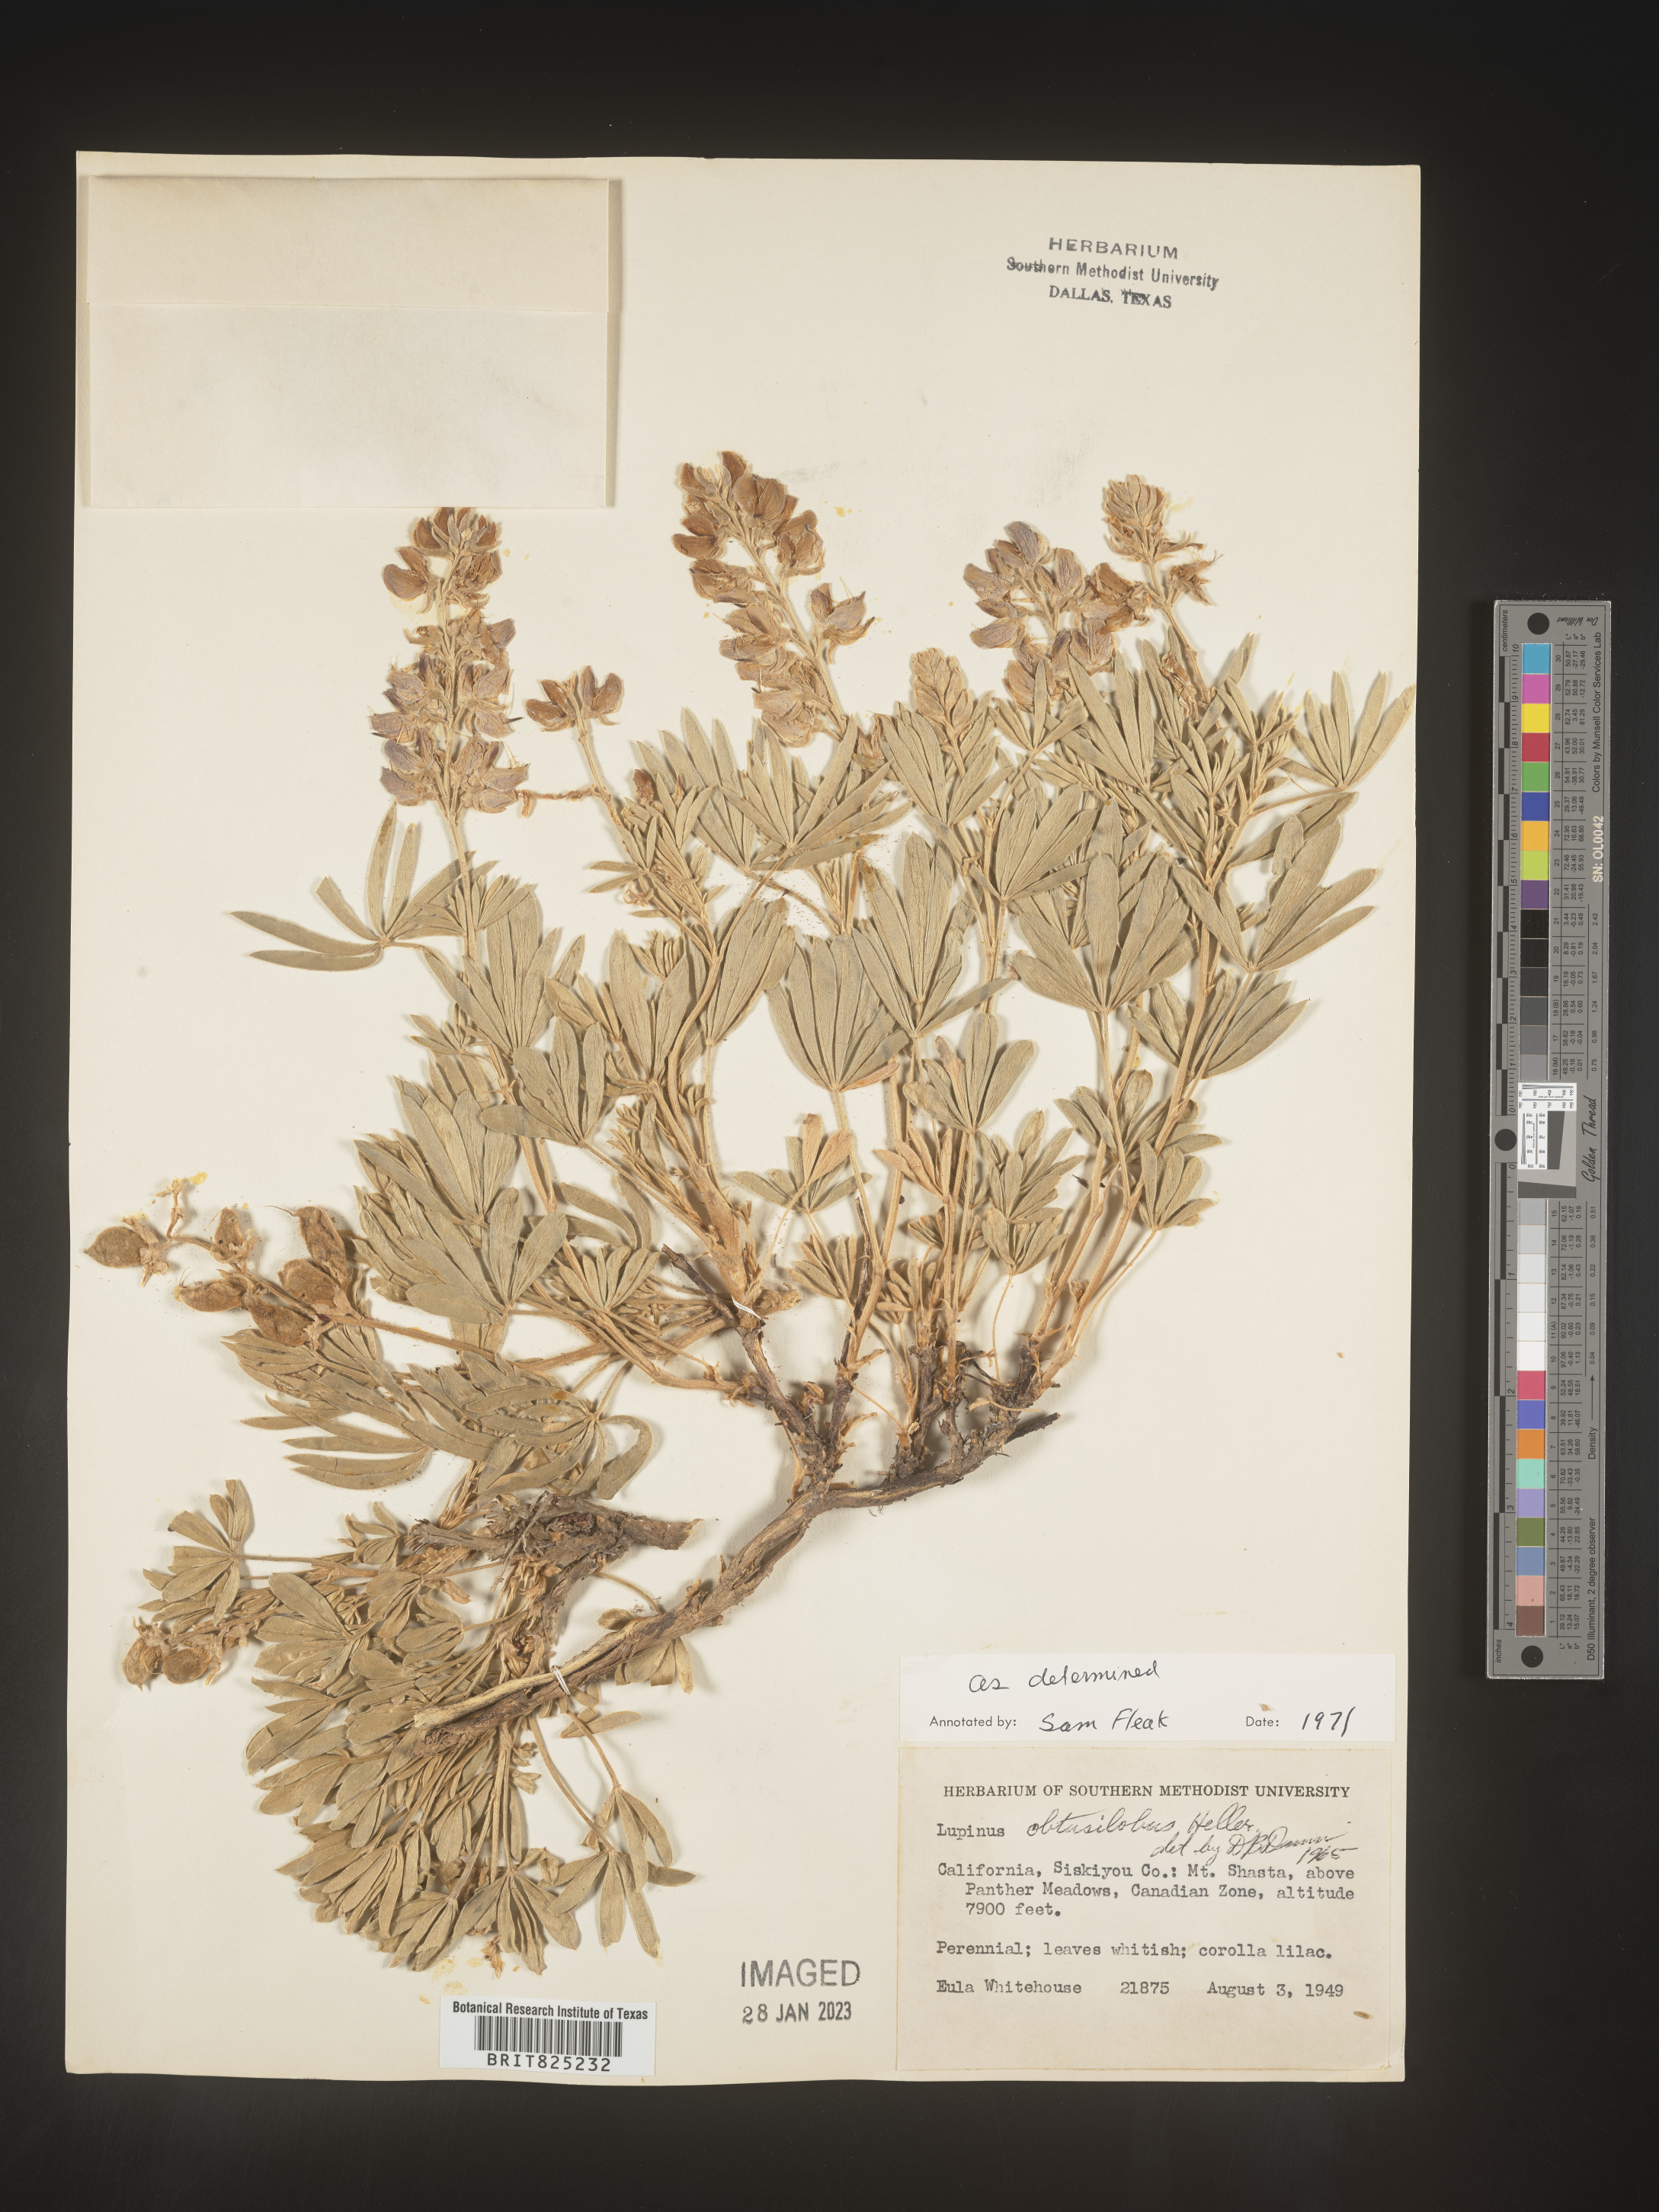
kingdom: Plantae
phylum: Tracheophyta
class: Magnoliopsida
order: Fabales
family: Fabaceae
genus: Lupinus
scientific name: Lupinus
